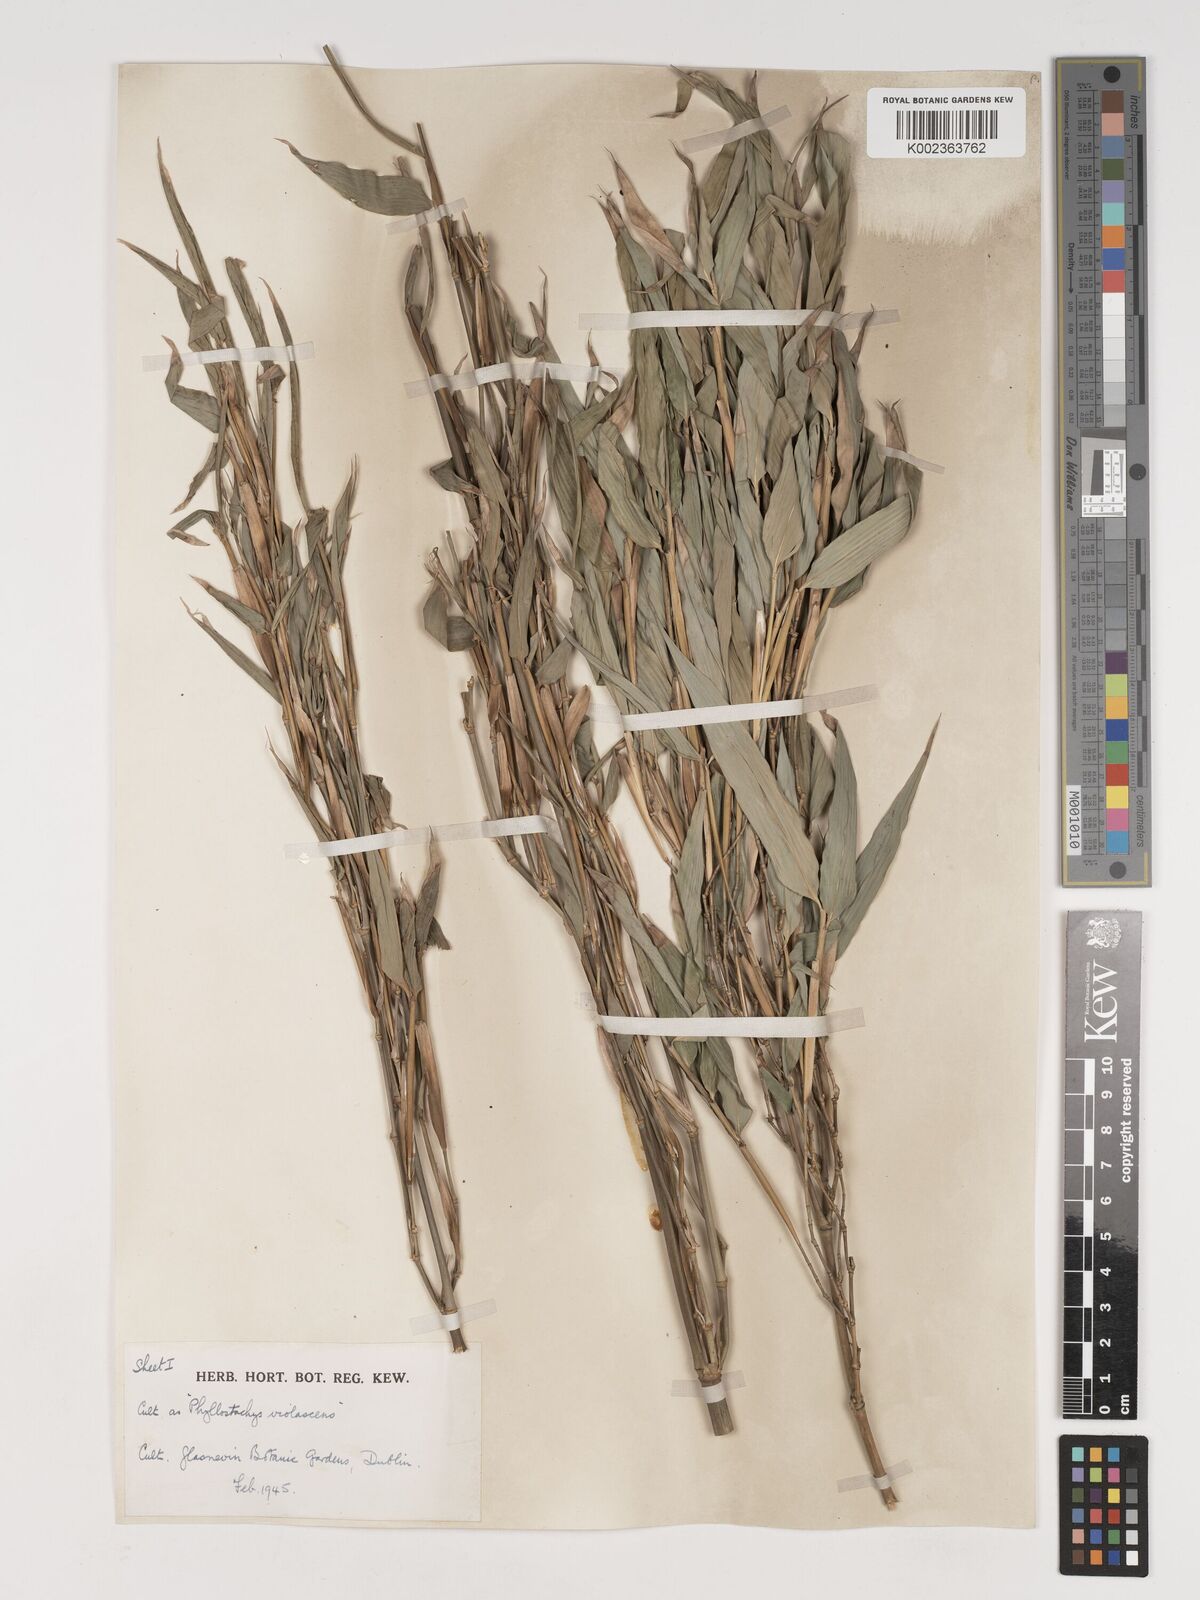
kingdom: Plantae
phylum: Tracheophyta
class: Liliopsida
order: Poales
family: Poaceae
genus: Phyllostachys
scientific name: Phyllostachys reticulata
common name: Bamboo
